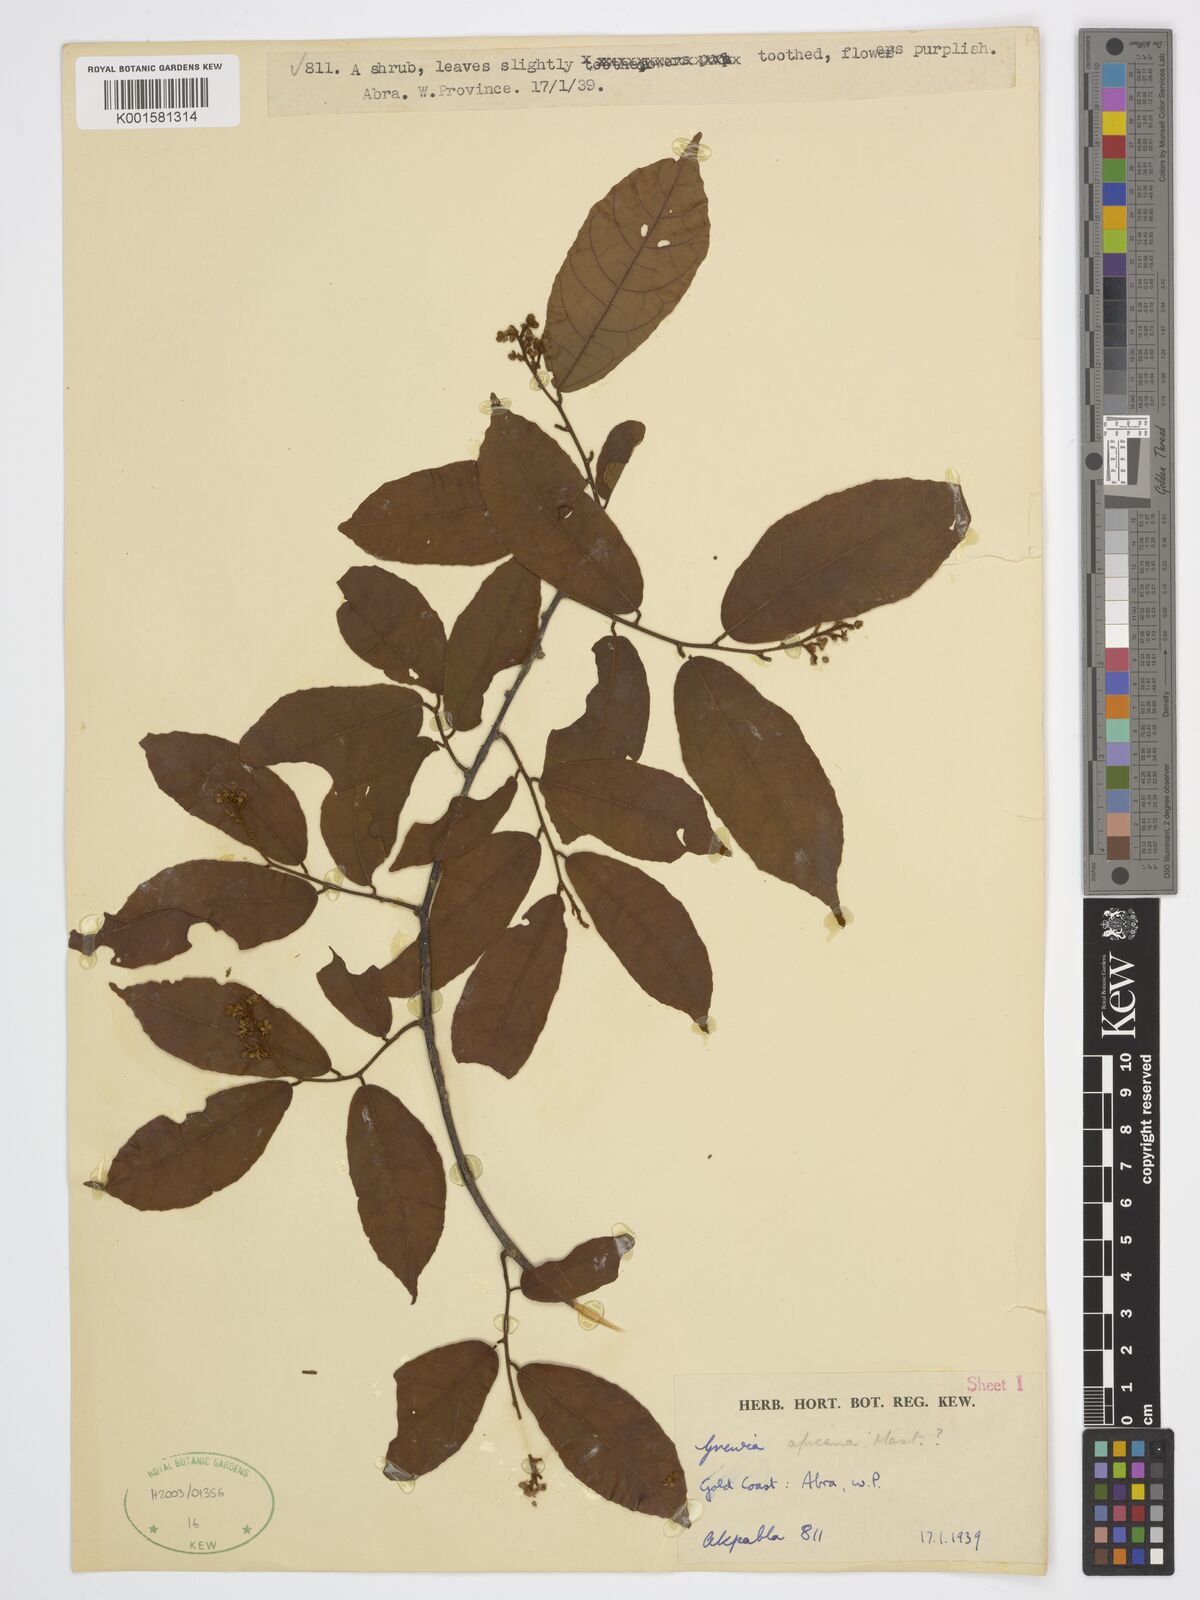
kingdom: Plantae
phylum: Tracheophyta
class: Magnoliopsida
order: Malvales
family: Malvaceae
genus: Grewia
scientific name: Grewia mollis
